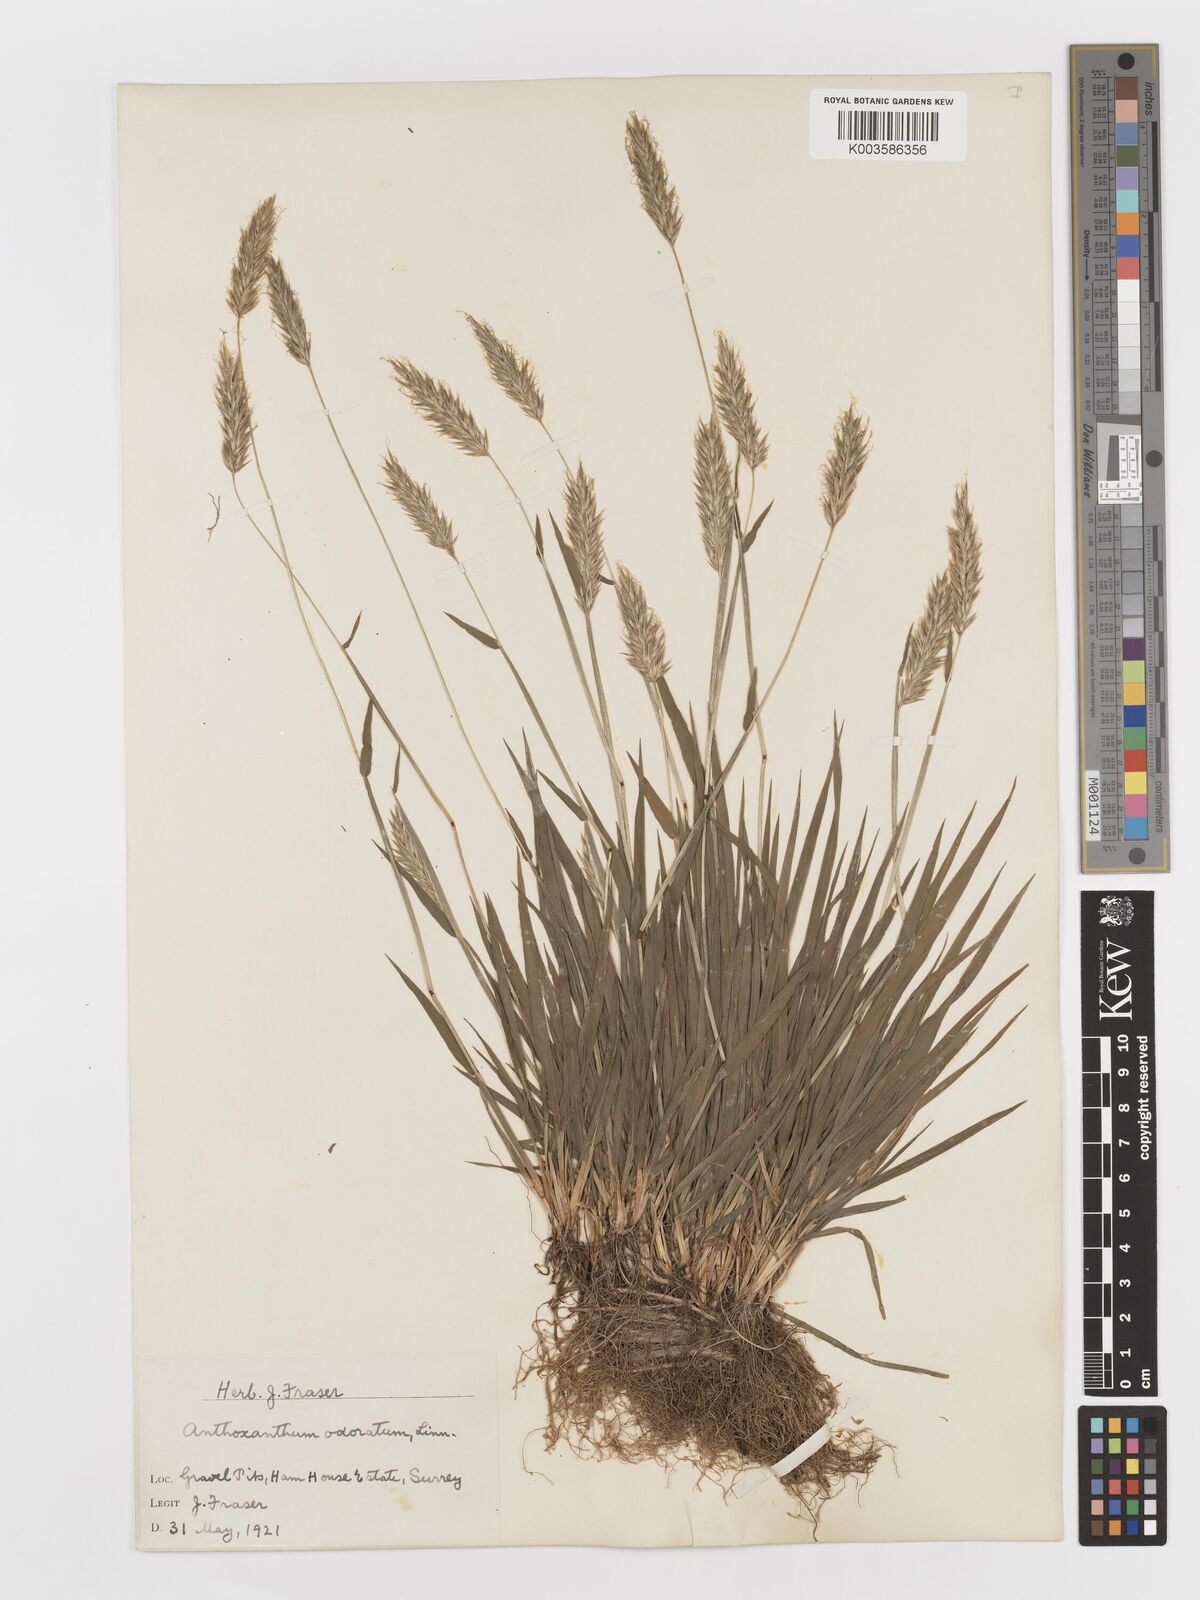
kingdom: Plantae
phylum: Tracheophyta
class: Liliopsida
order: Poales
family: Poaceae
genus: Anthoxanthum
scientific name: Anthoxanthum odoratum
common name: Sweet vernalgrass
